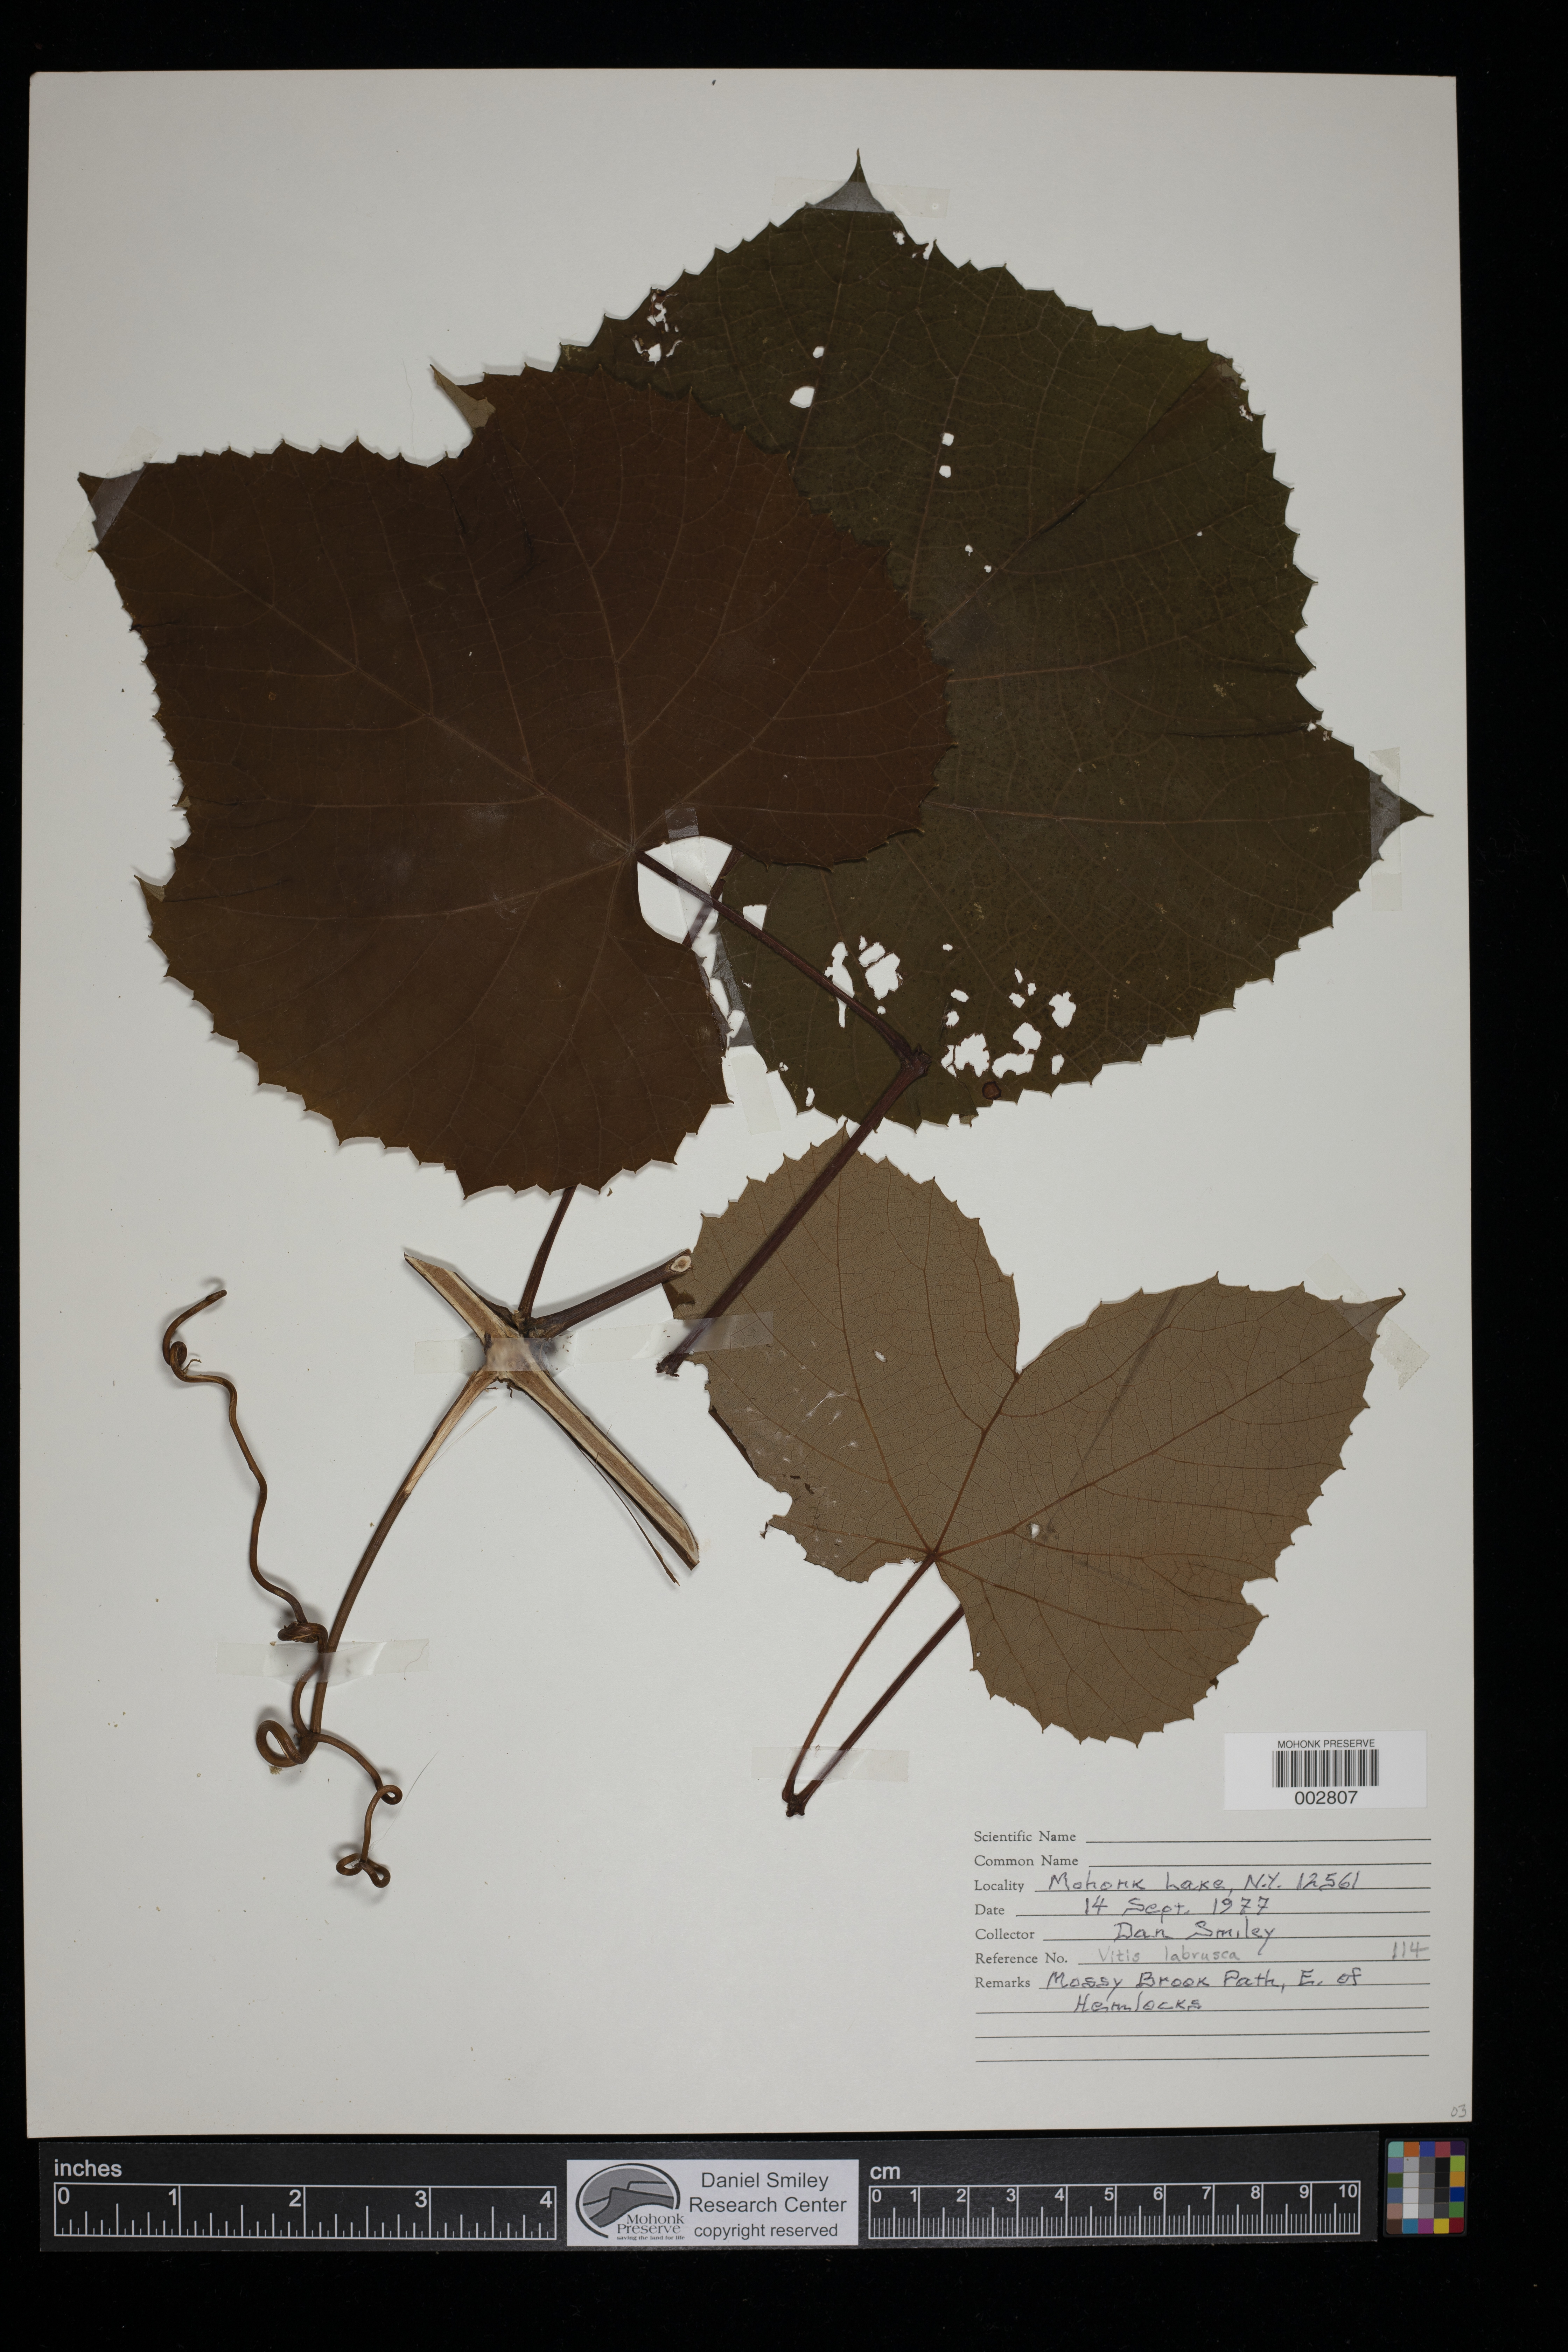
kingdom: Plantae
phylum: Tracheophyta
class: Magnoliopsida
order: Vitales
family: Vitaceae
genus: Vitis
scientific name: Vitis labrusca
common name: Concord grape
